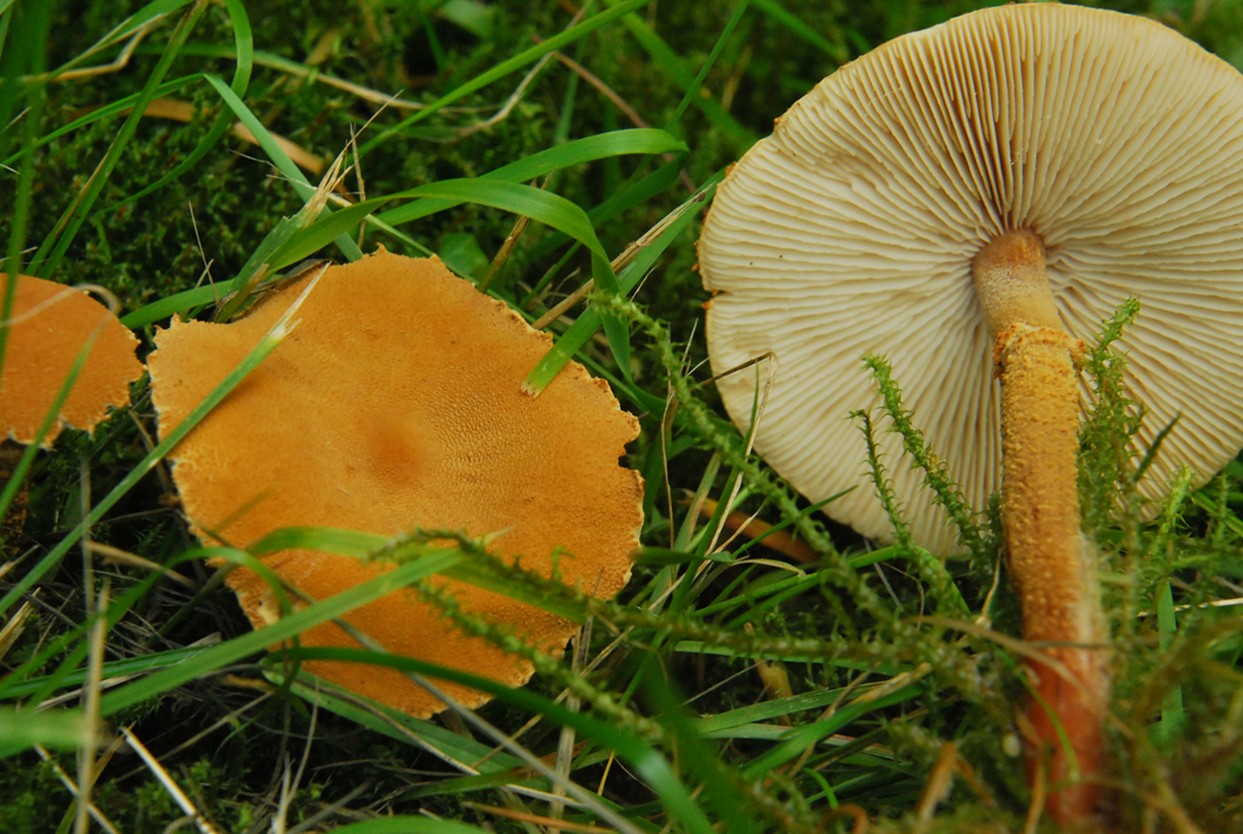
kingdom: Fungi
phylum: Basidiomycota
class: Agaricomycetes
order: Agaricales
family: Tricholomataceae
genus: Cystoderma
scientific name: Cystoderma amianthinum
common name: okkergul grynhat
